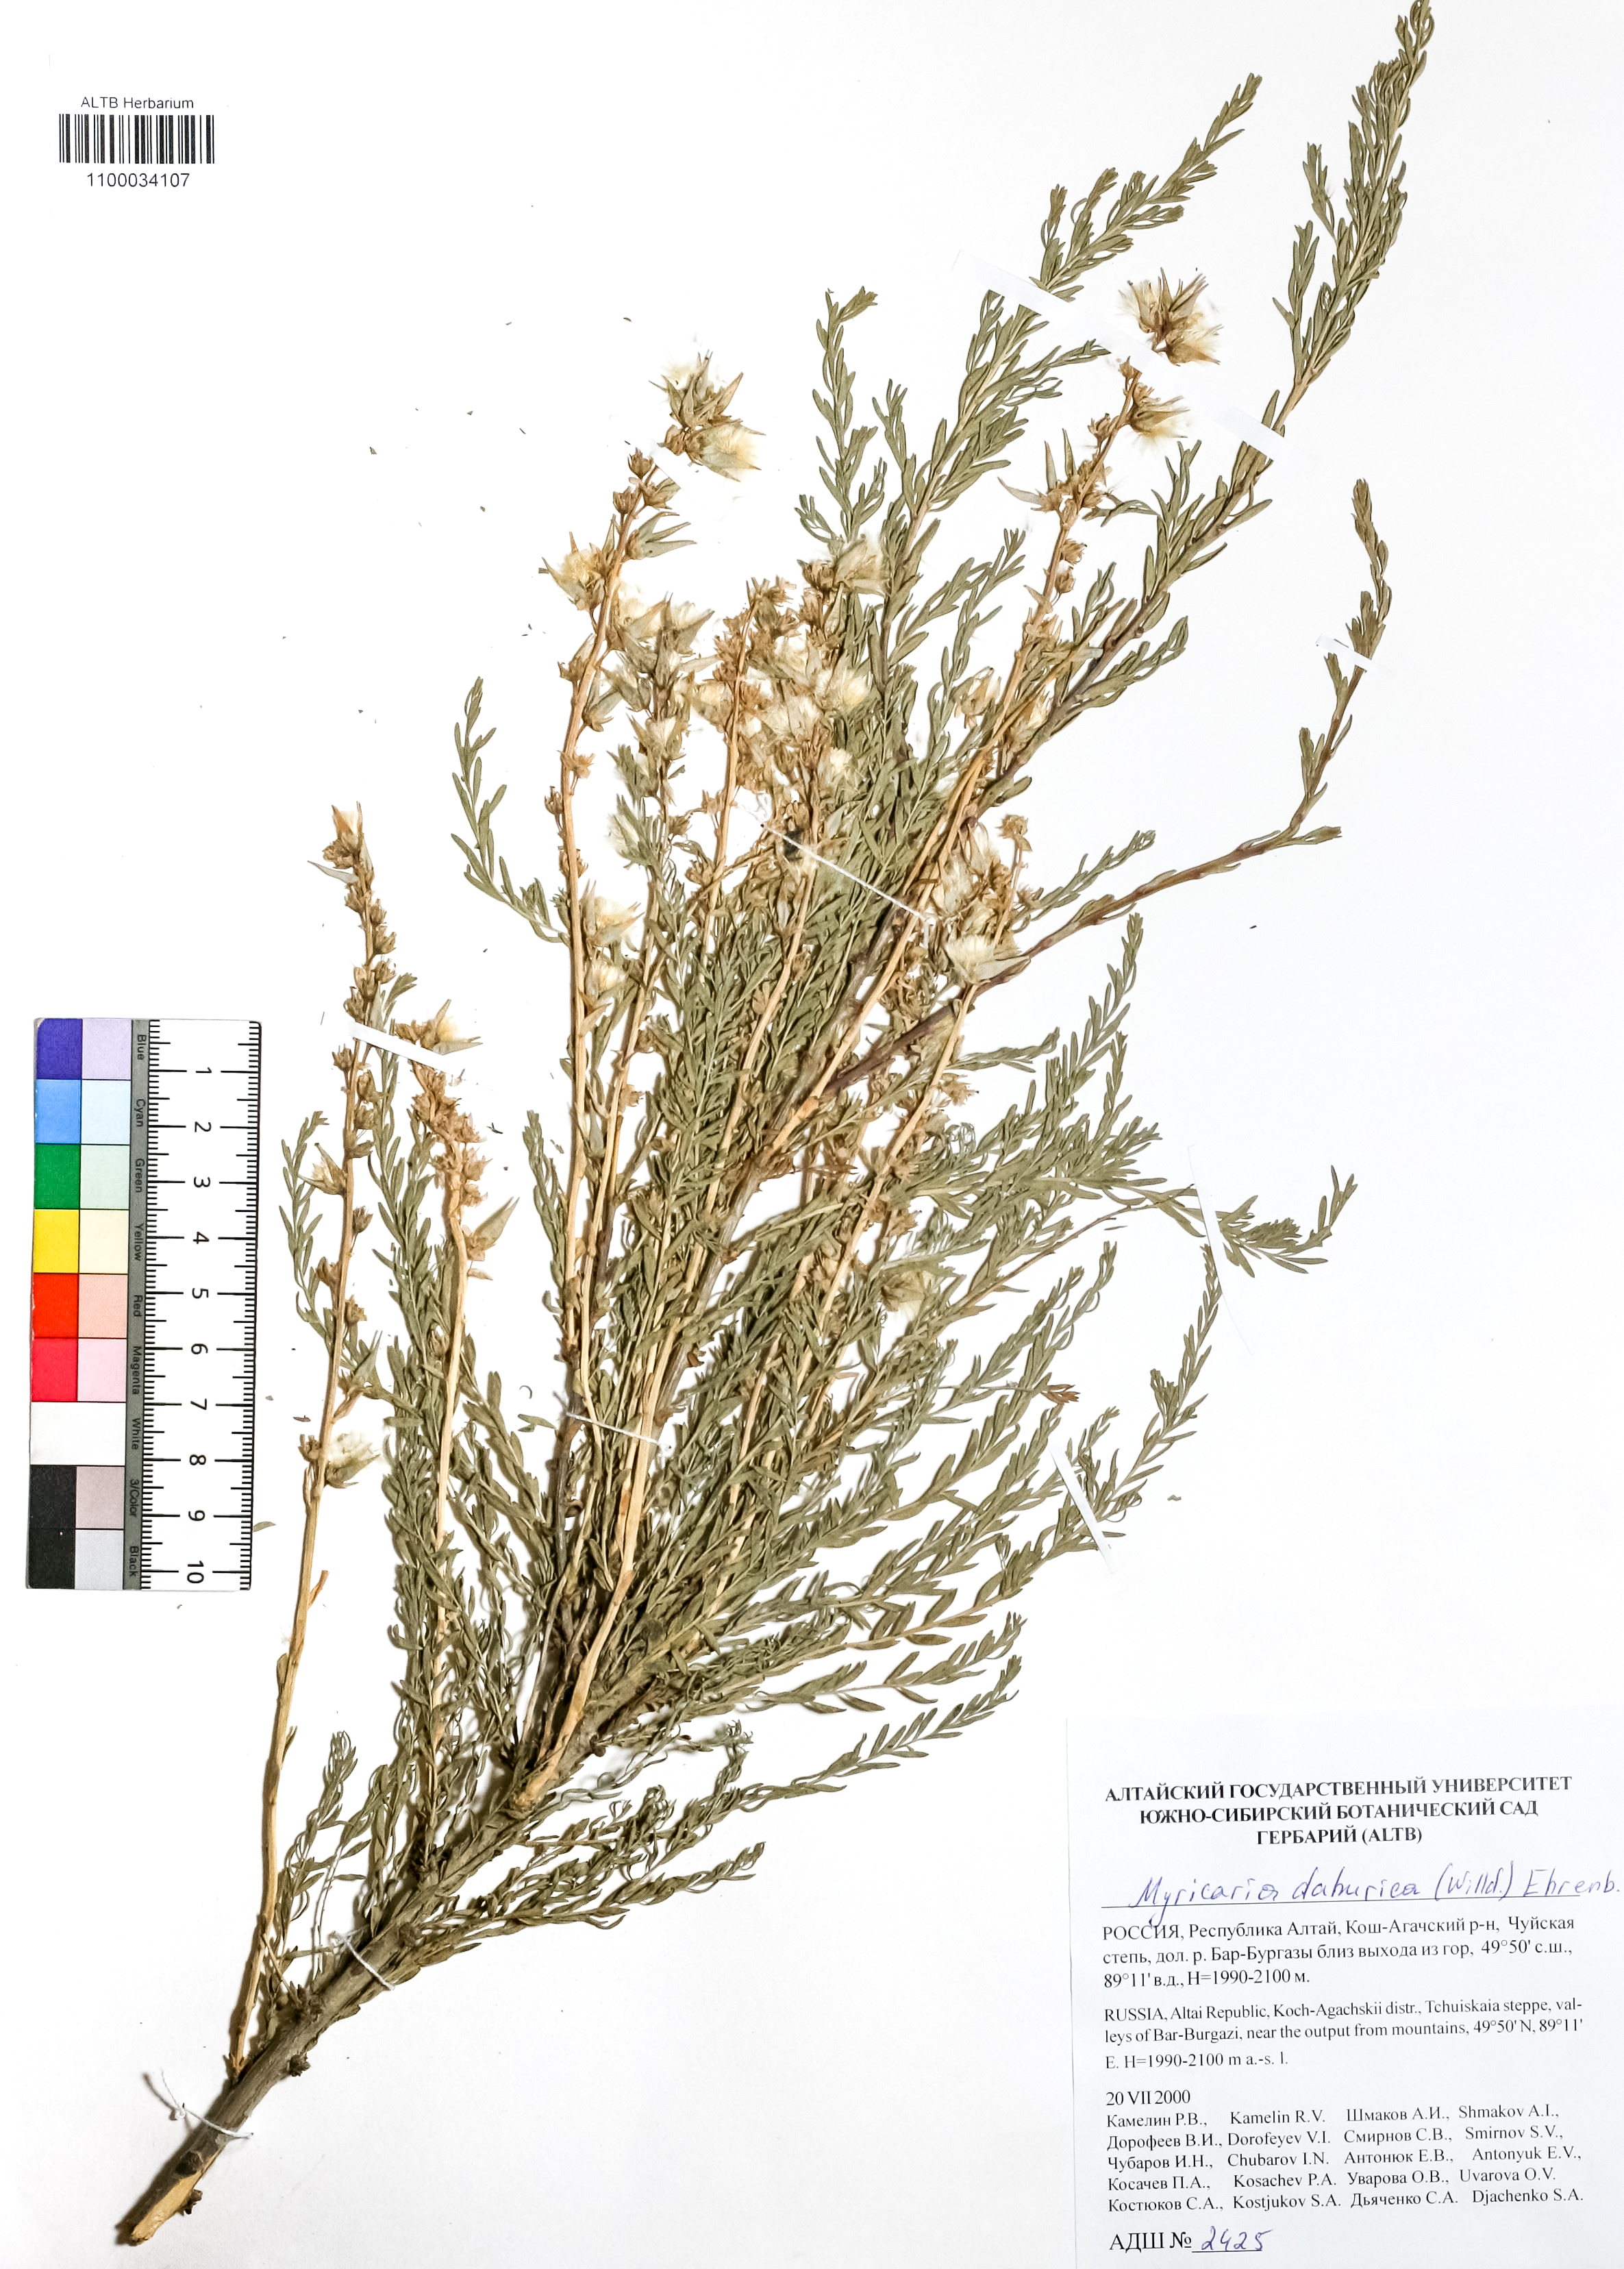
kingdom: Plantae
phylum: Tracheophyta
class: Magnoliopsida
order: Caryophyllales
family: Tamaricaceae
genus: Myricaria
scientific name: Myricaria davurica
